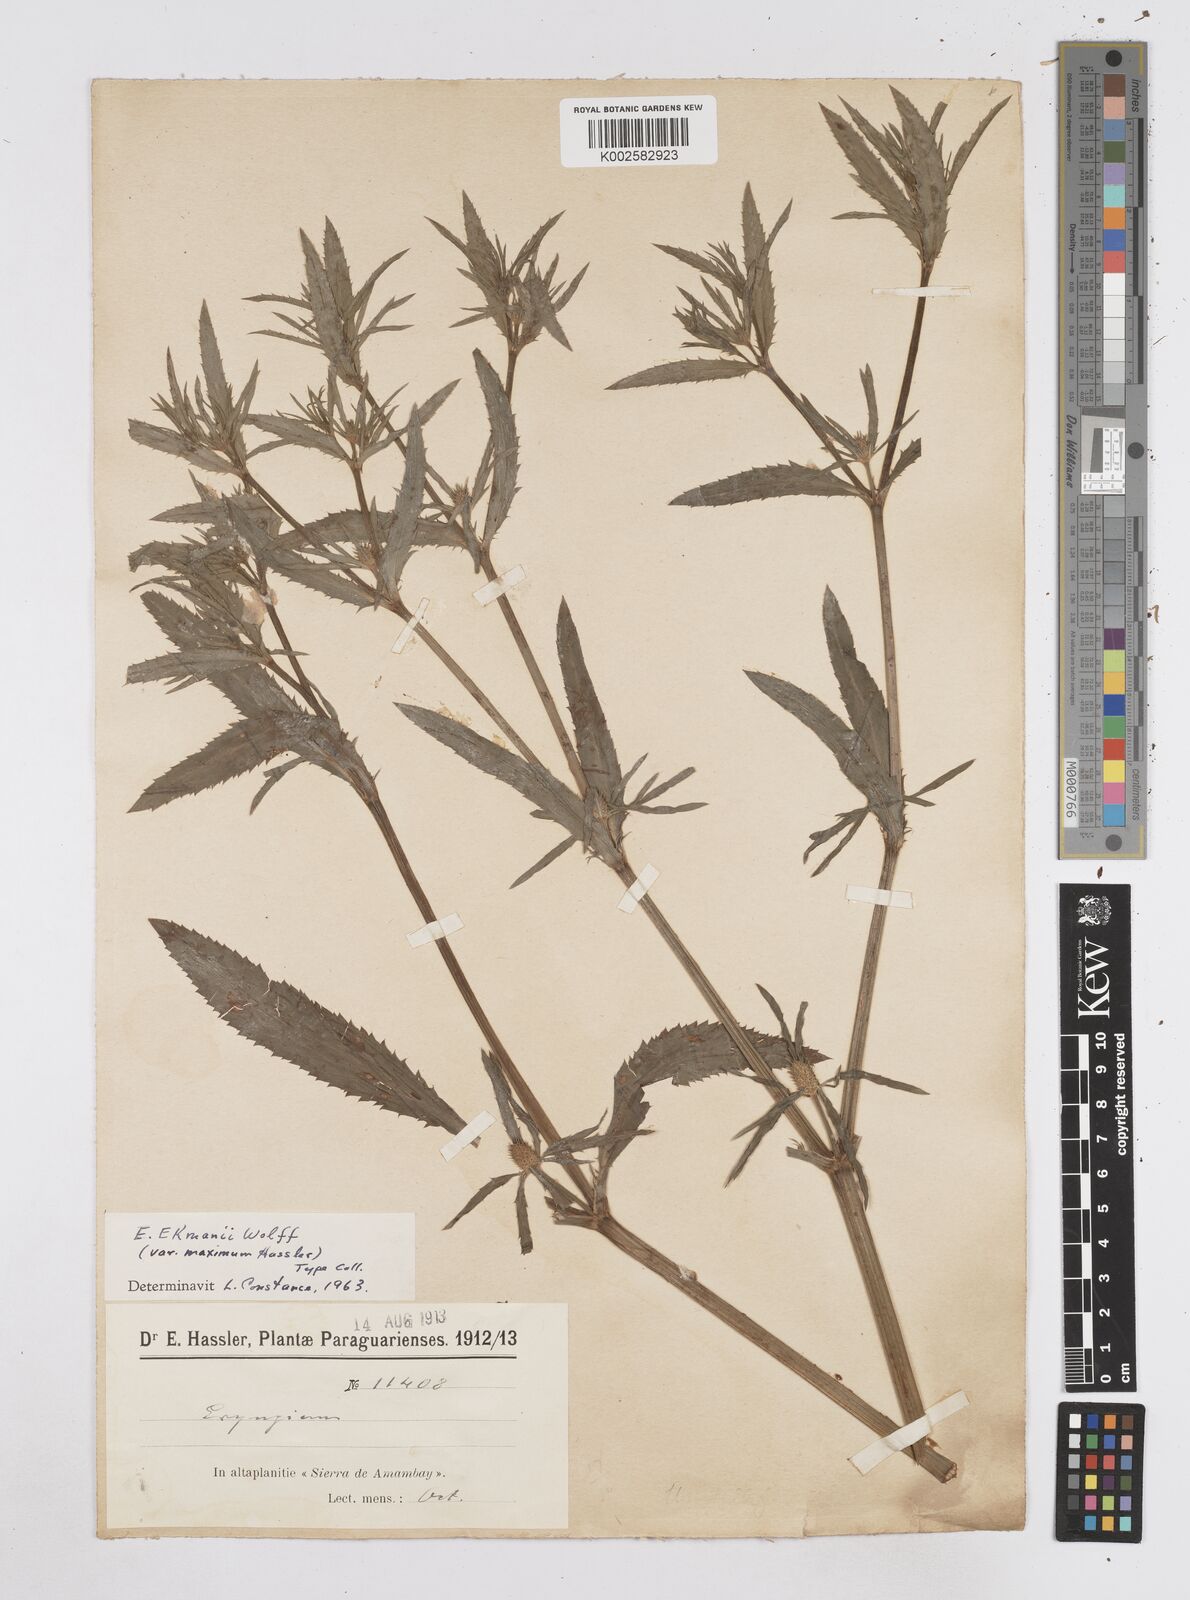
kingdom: Plantae
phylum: Tracheophyta
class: Magnoliopsida
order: Apiales
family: Apiaceae
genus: Eryngium
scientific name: Eryngium ekmanii
